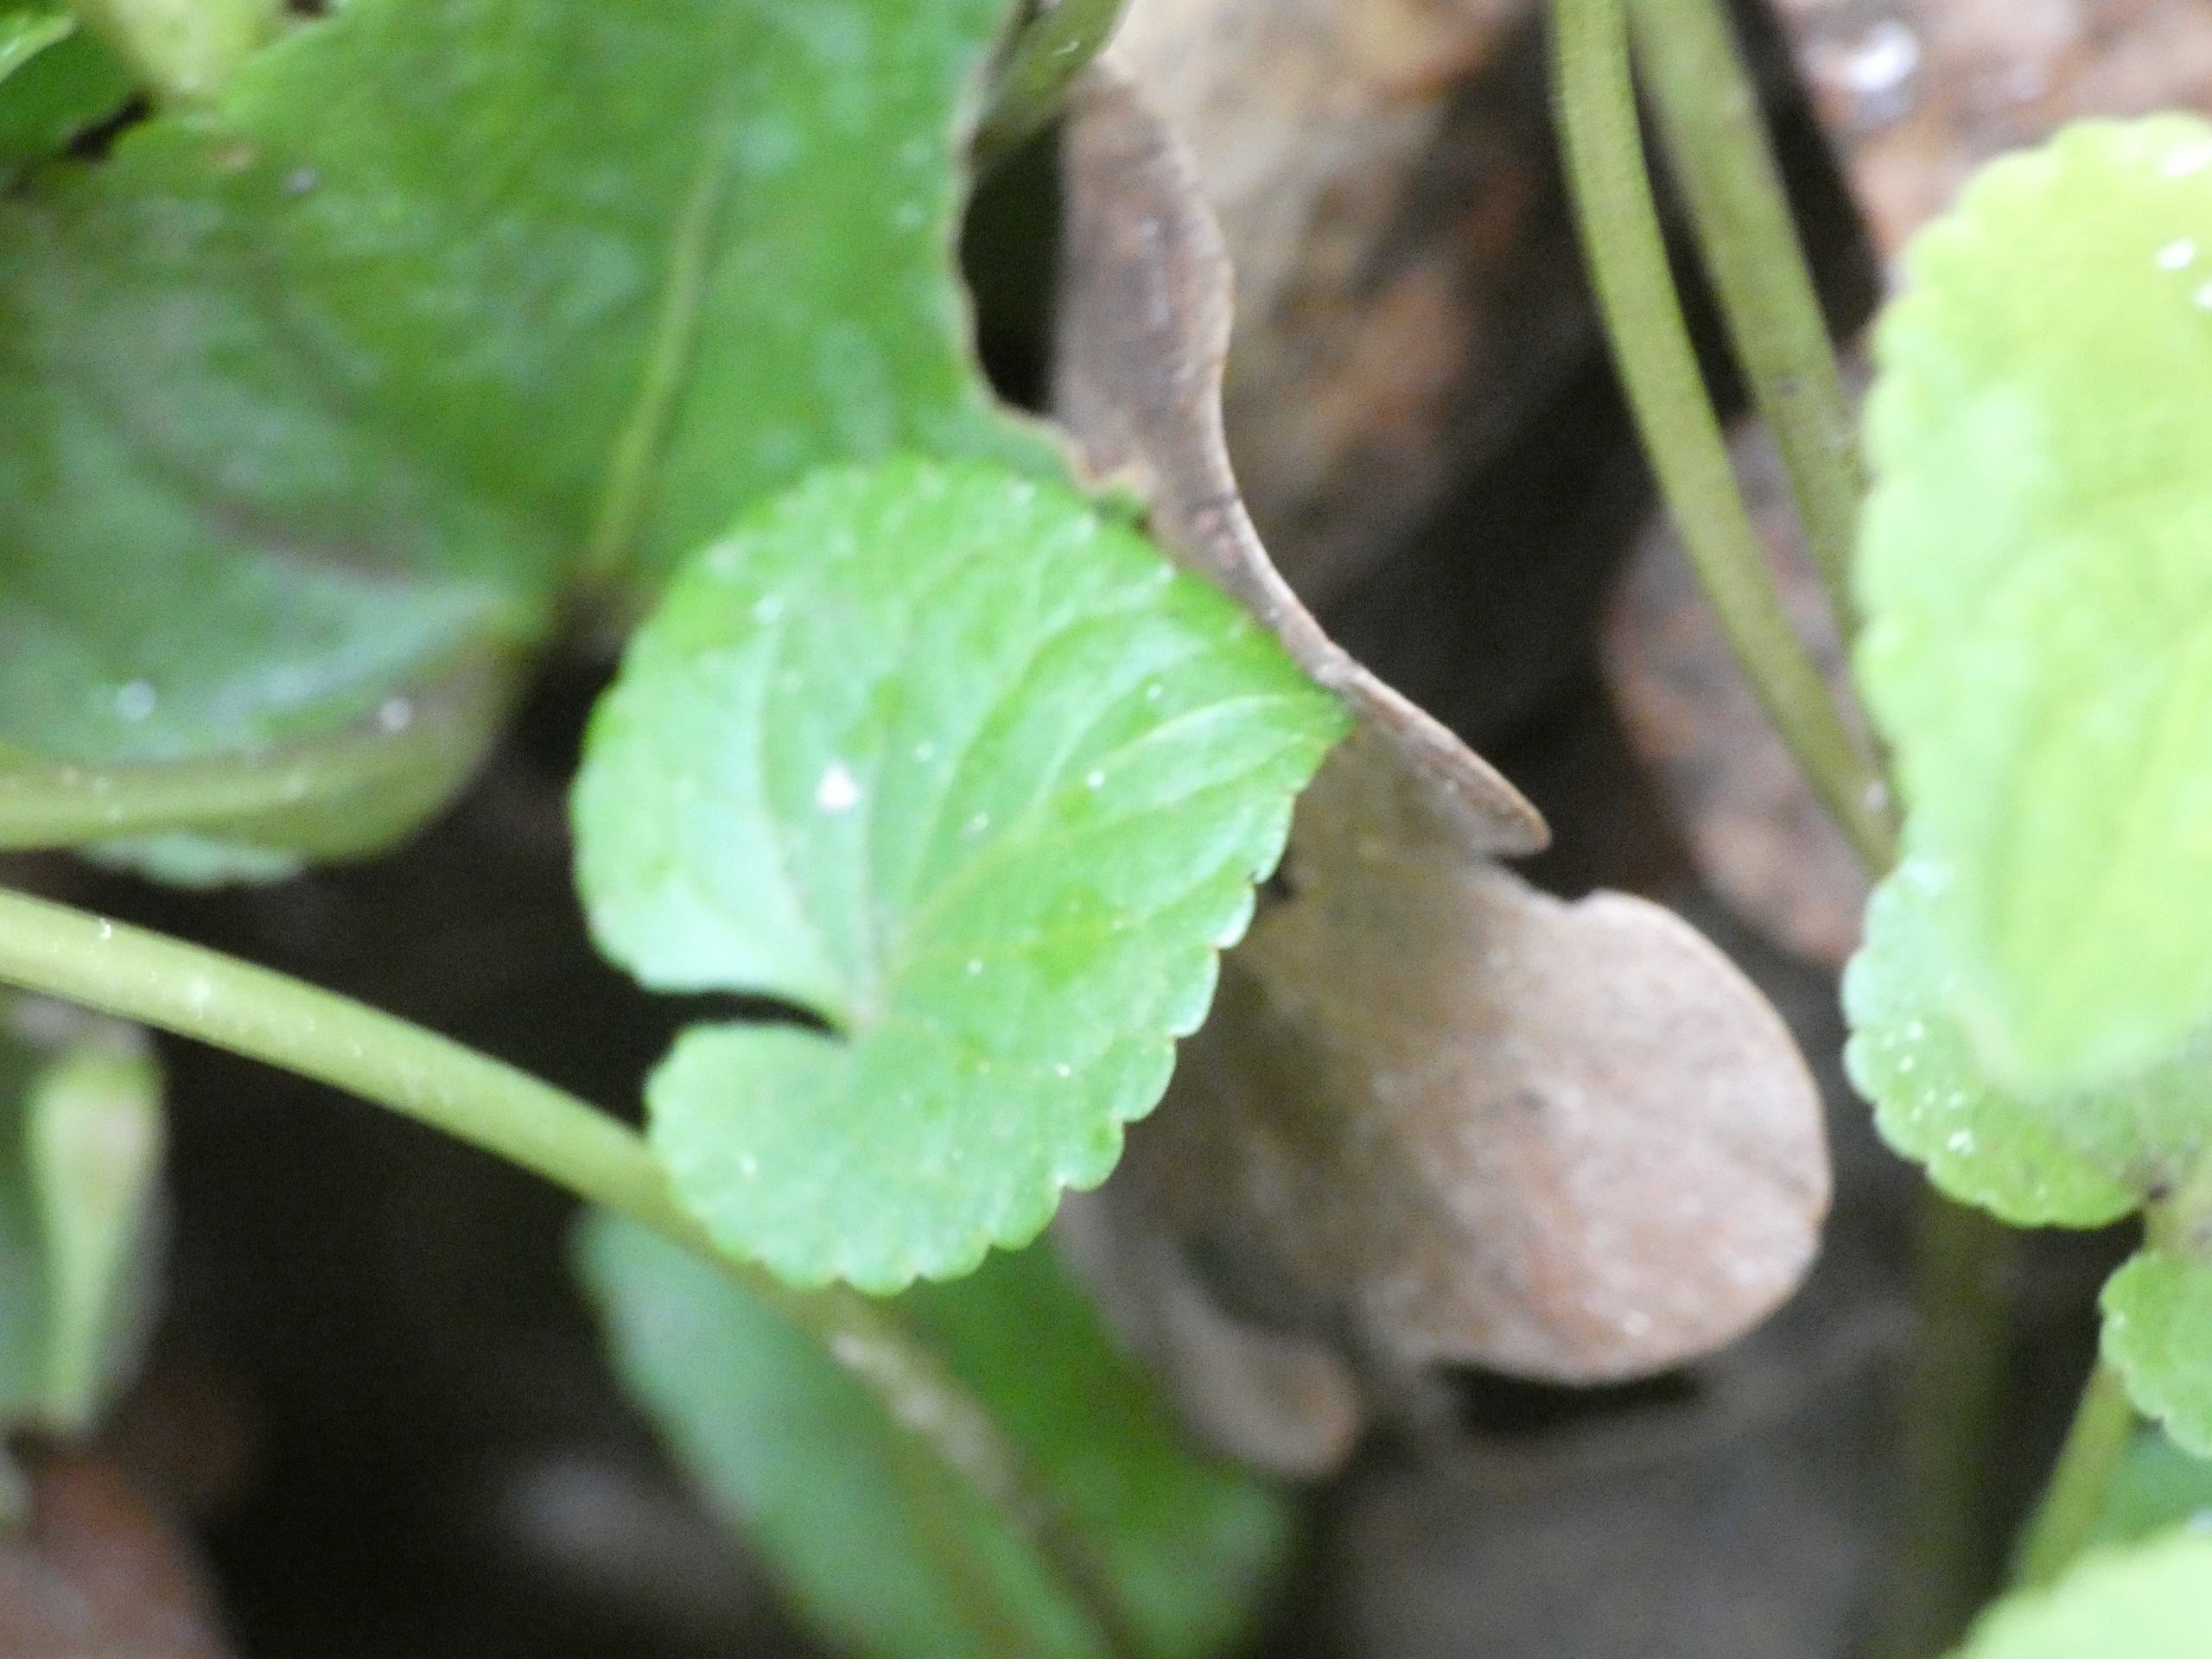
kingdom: Plantae
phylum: Tracheophyta
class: Magnoliopsida
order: Malpighiales
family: Violaceae
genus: Viola
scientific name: Viola riviniana
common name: Krat-viol
